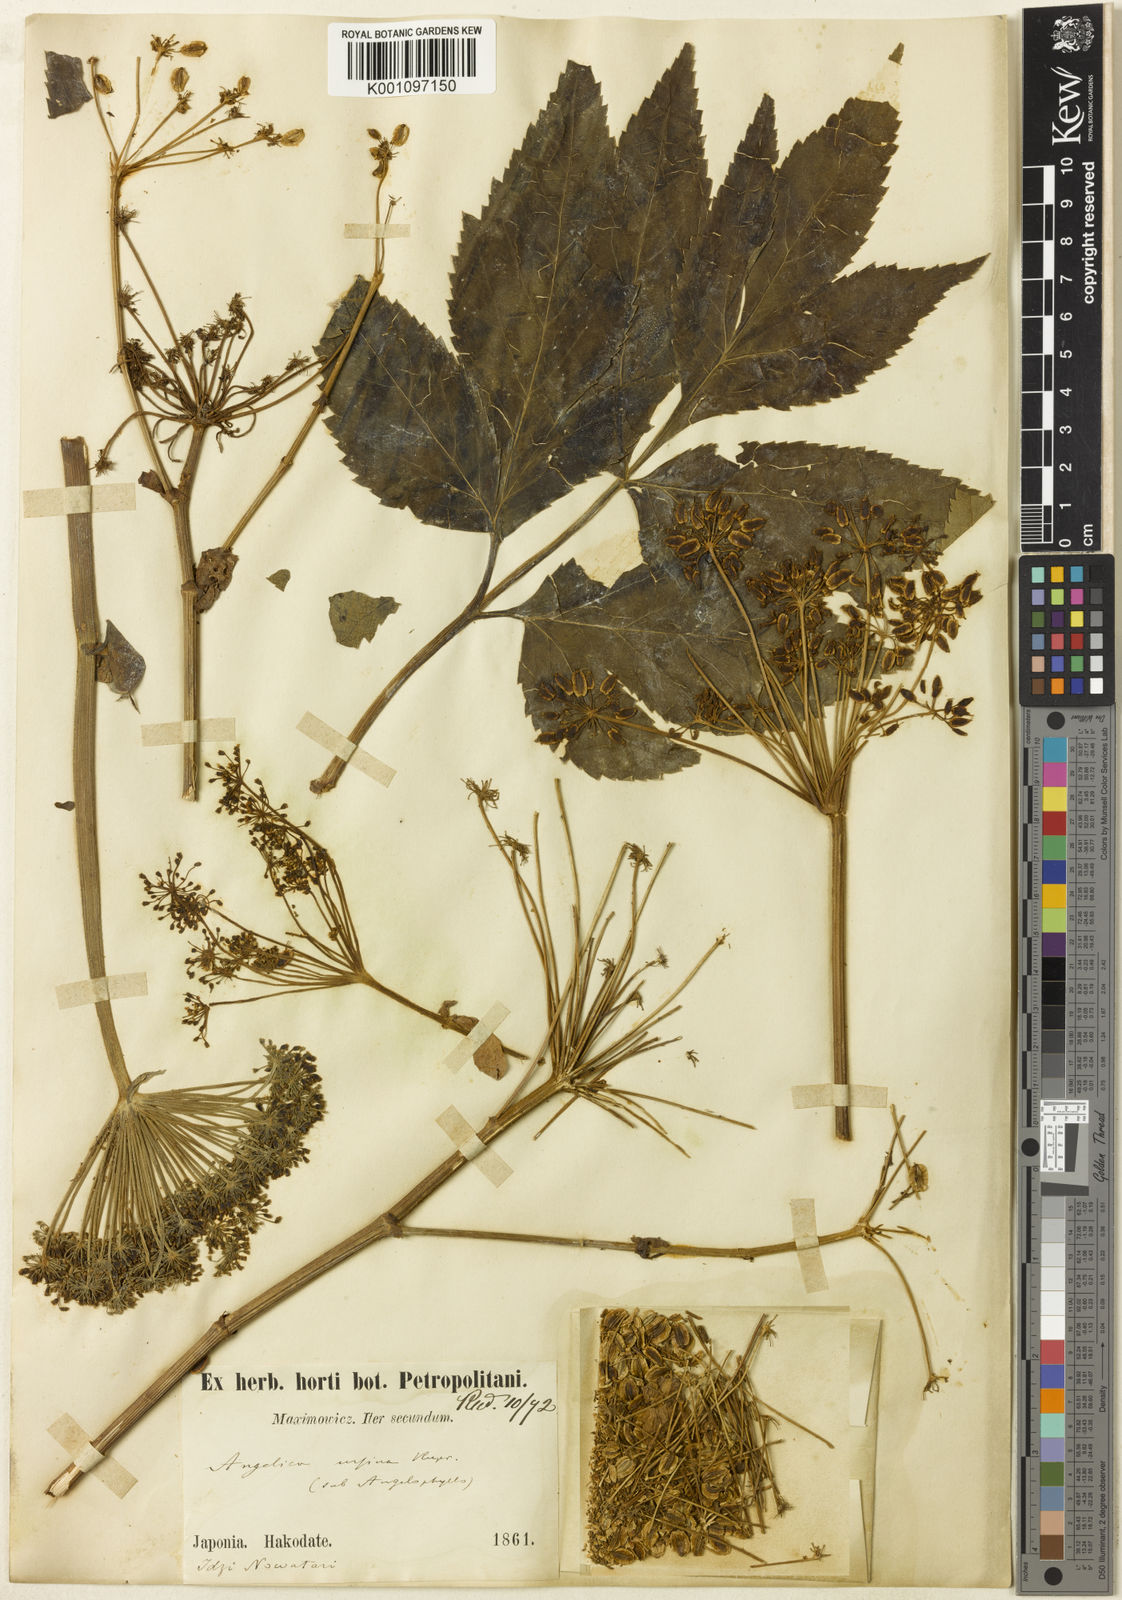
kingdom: Plantae
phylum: Tracheophyta
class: Magnoliopsida
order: Apiales
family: Apiaceae
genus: Angelica
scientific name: Angelica
